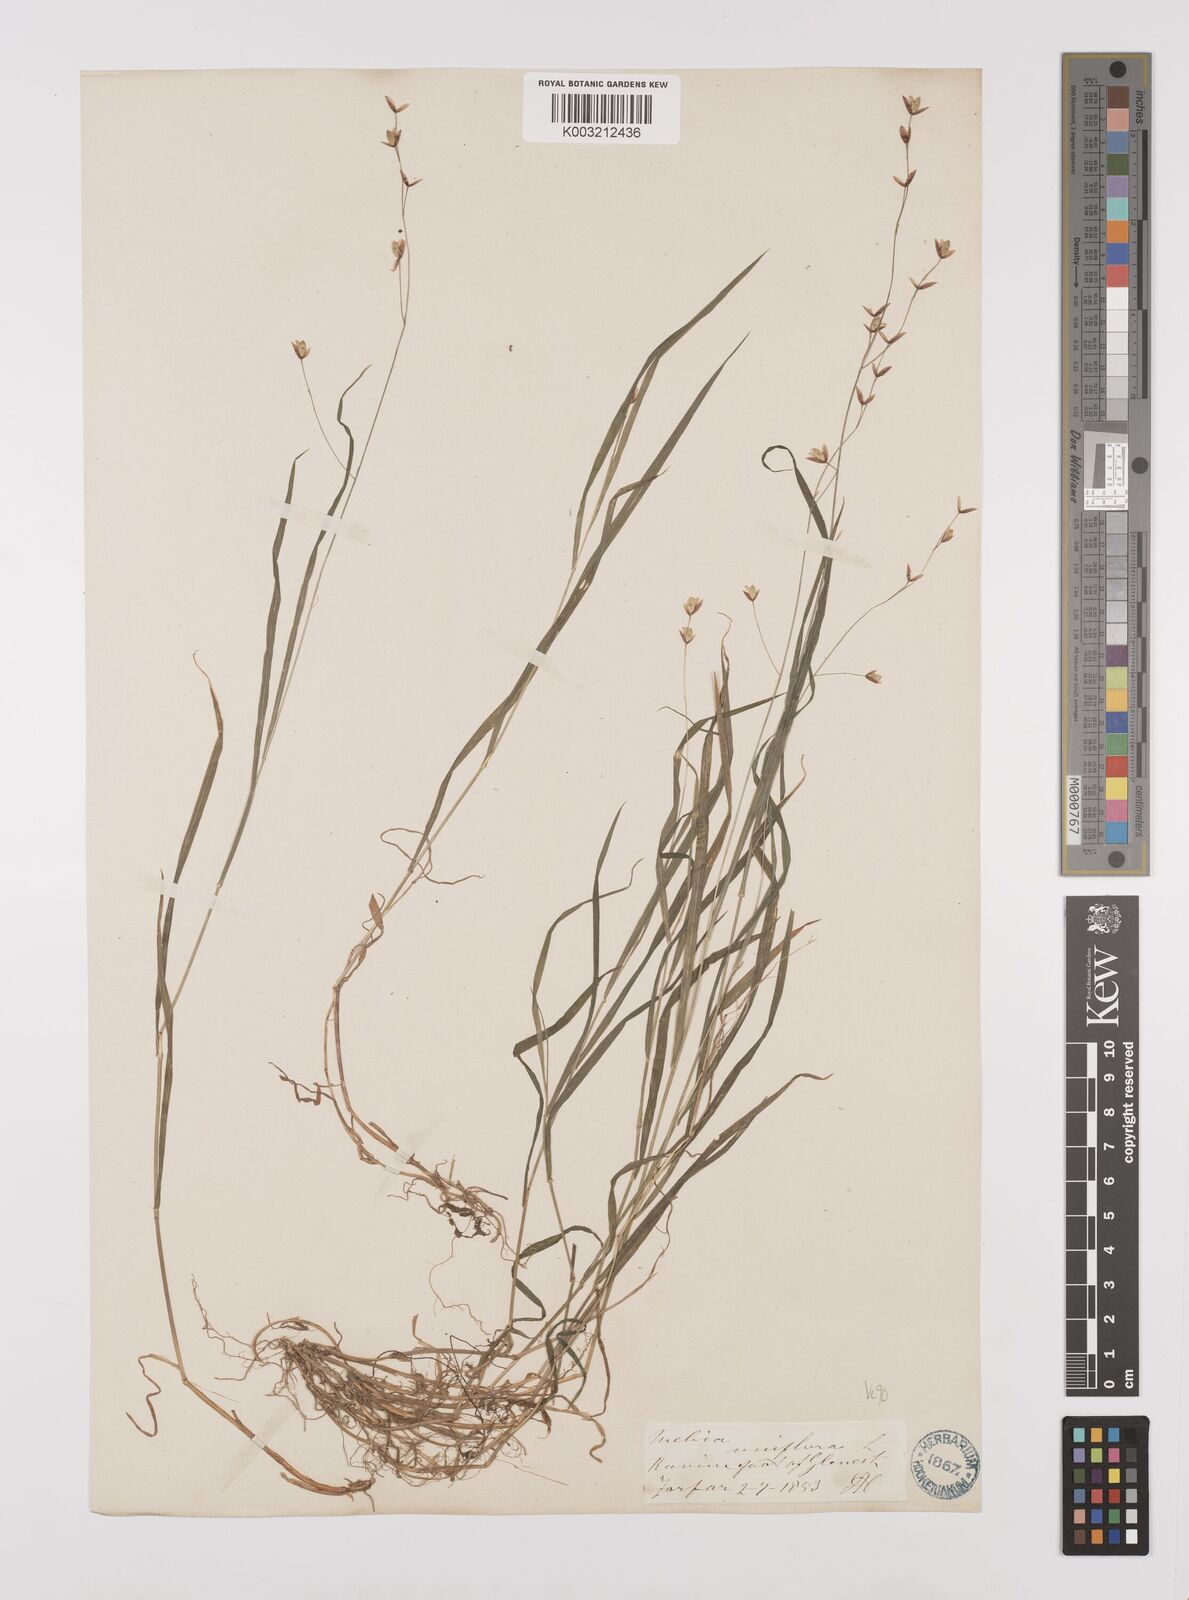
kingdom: Plantae
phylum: Tracheophyta
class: Liliopsida
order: Poales
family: Poaceae
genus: Melica
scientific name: Melica uniflora
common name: Wood melick
